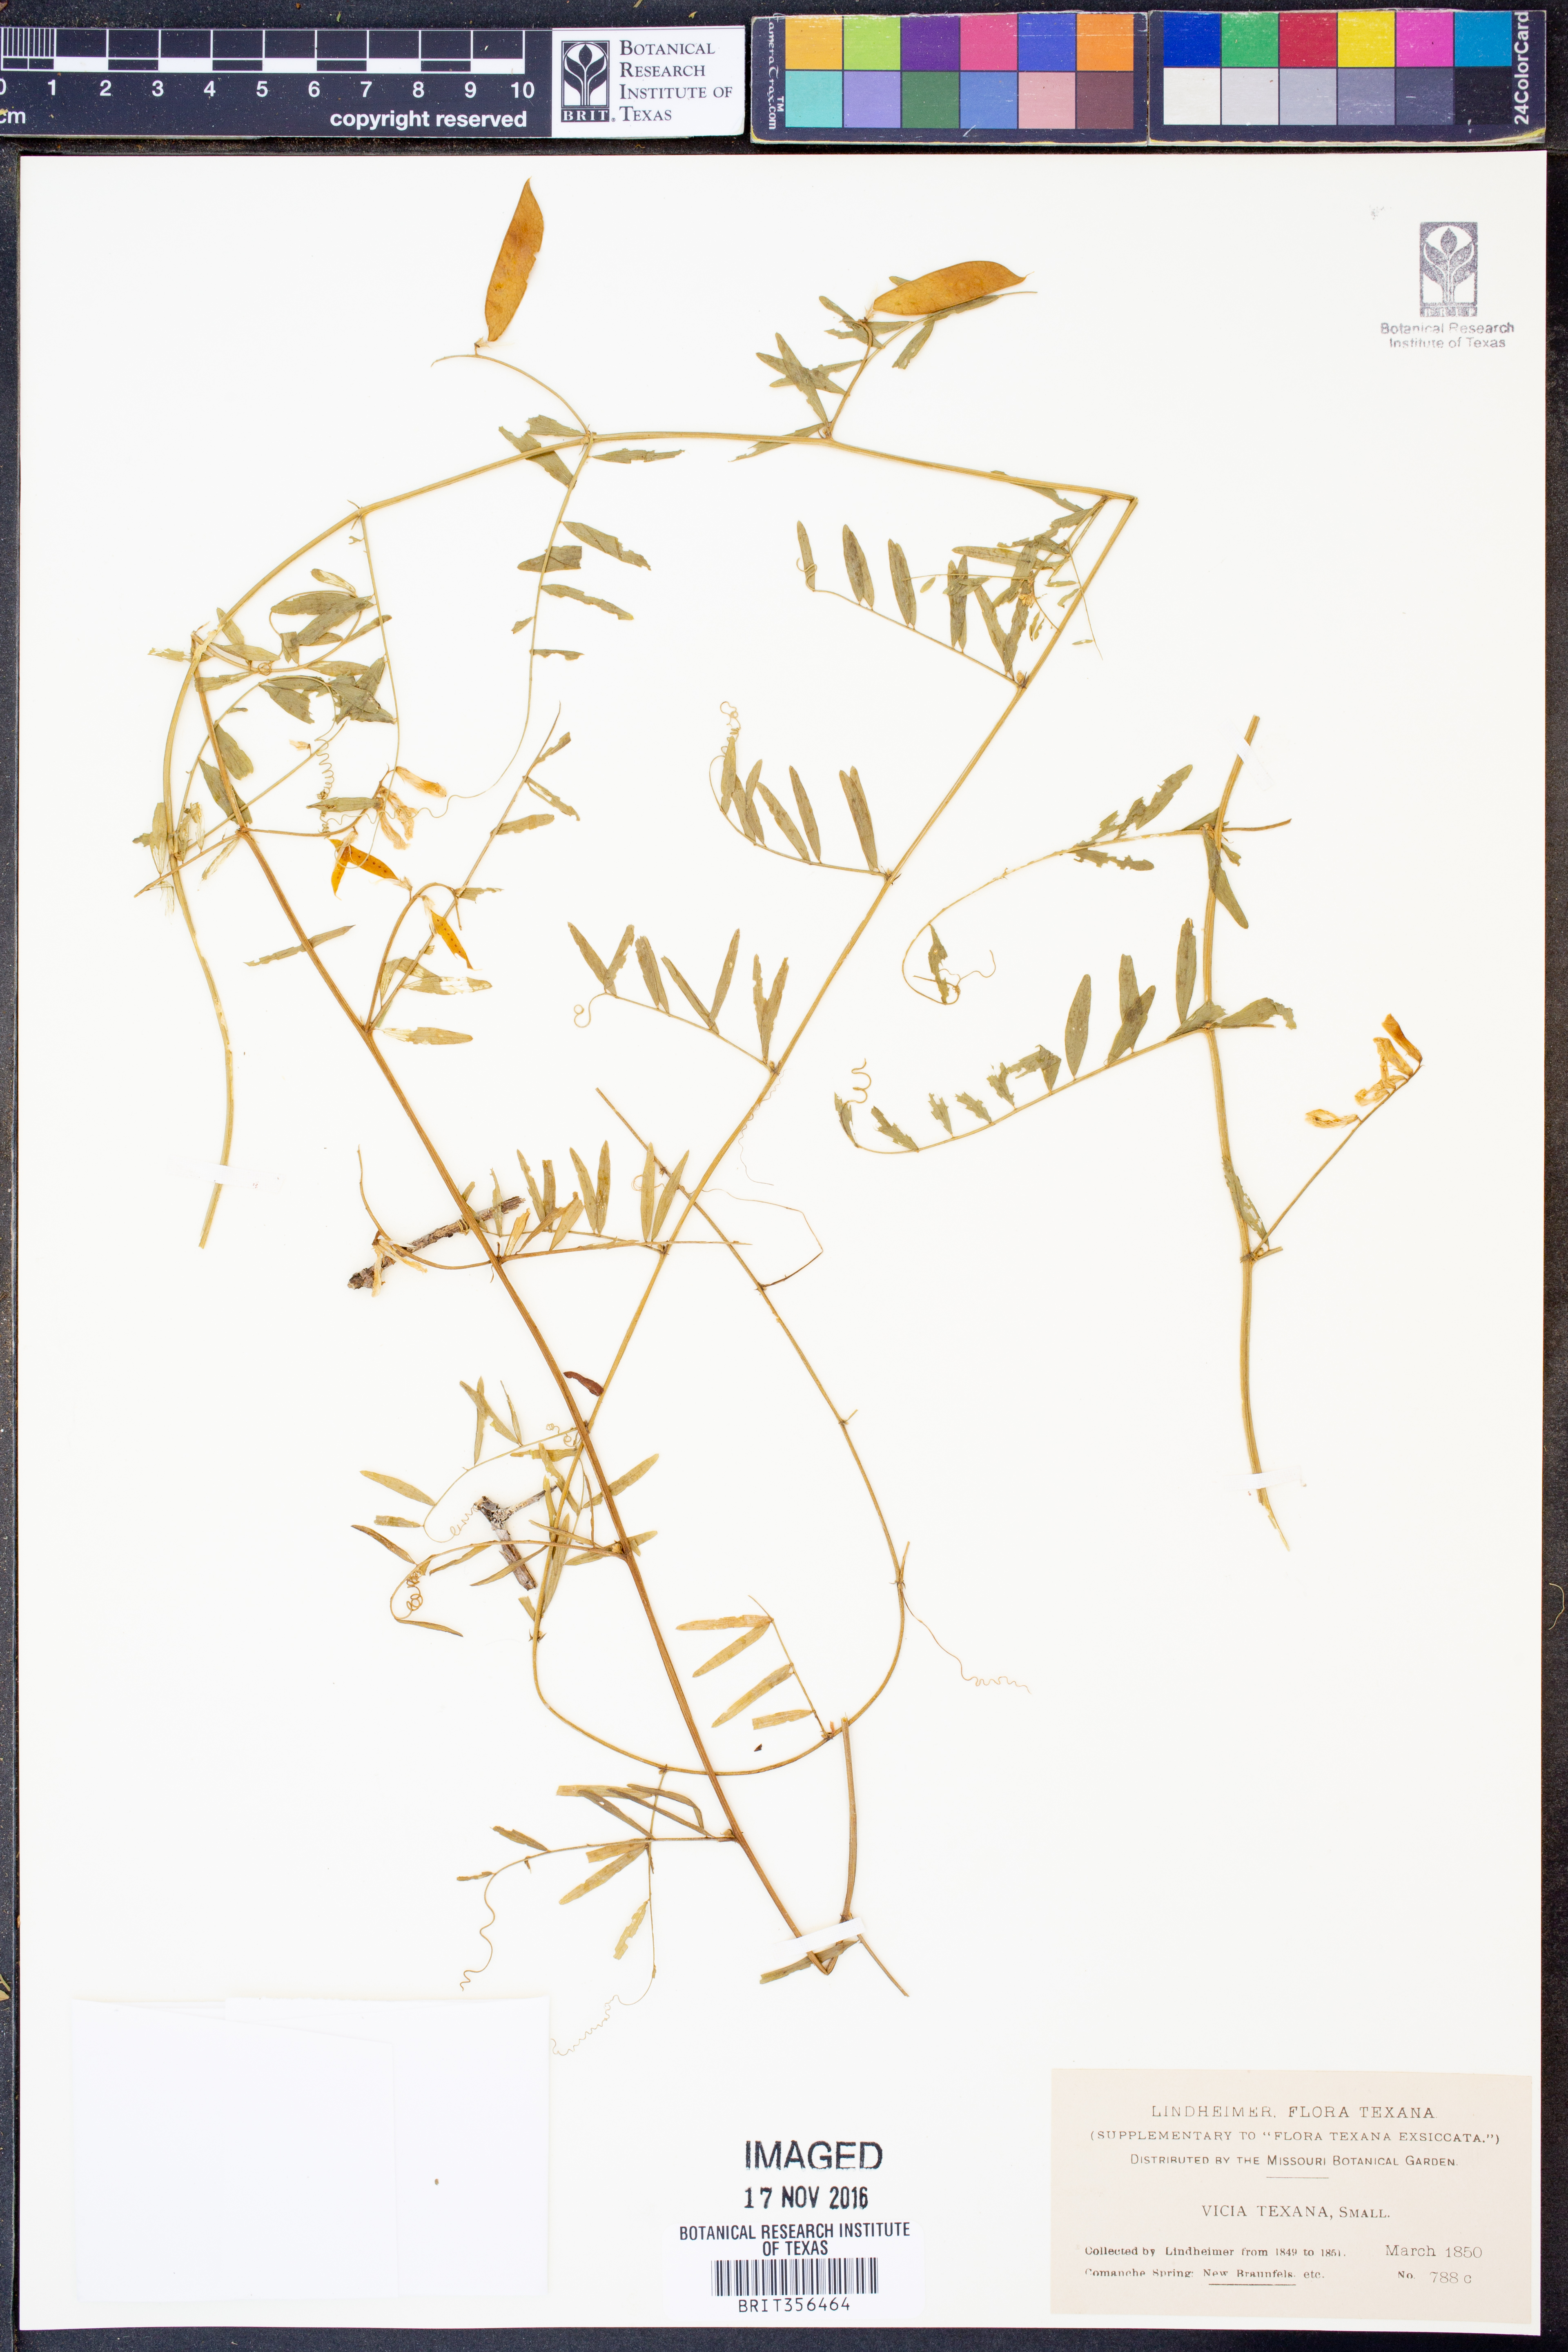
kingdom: Plantae
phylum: Tracheophyta
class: Magnoliopsida
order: Fabales
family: Fabaceae
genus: Vicia
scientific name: Vicia ludoviciana
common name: Louisiana vetch
